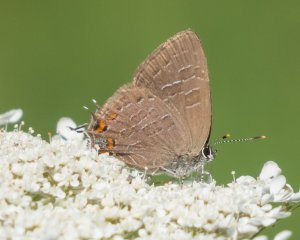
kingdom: Animalia
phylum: Arthropoda
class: Insecta
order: Lepidoptera
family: Lycaenidae
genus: Satyrium
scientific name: Satyrium liparops
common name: Striped Hairstreak
